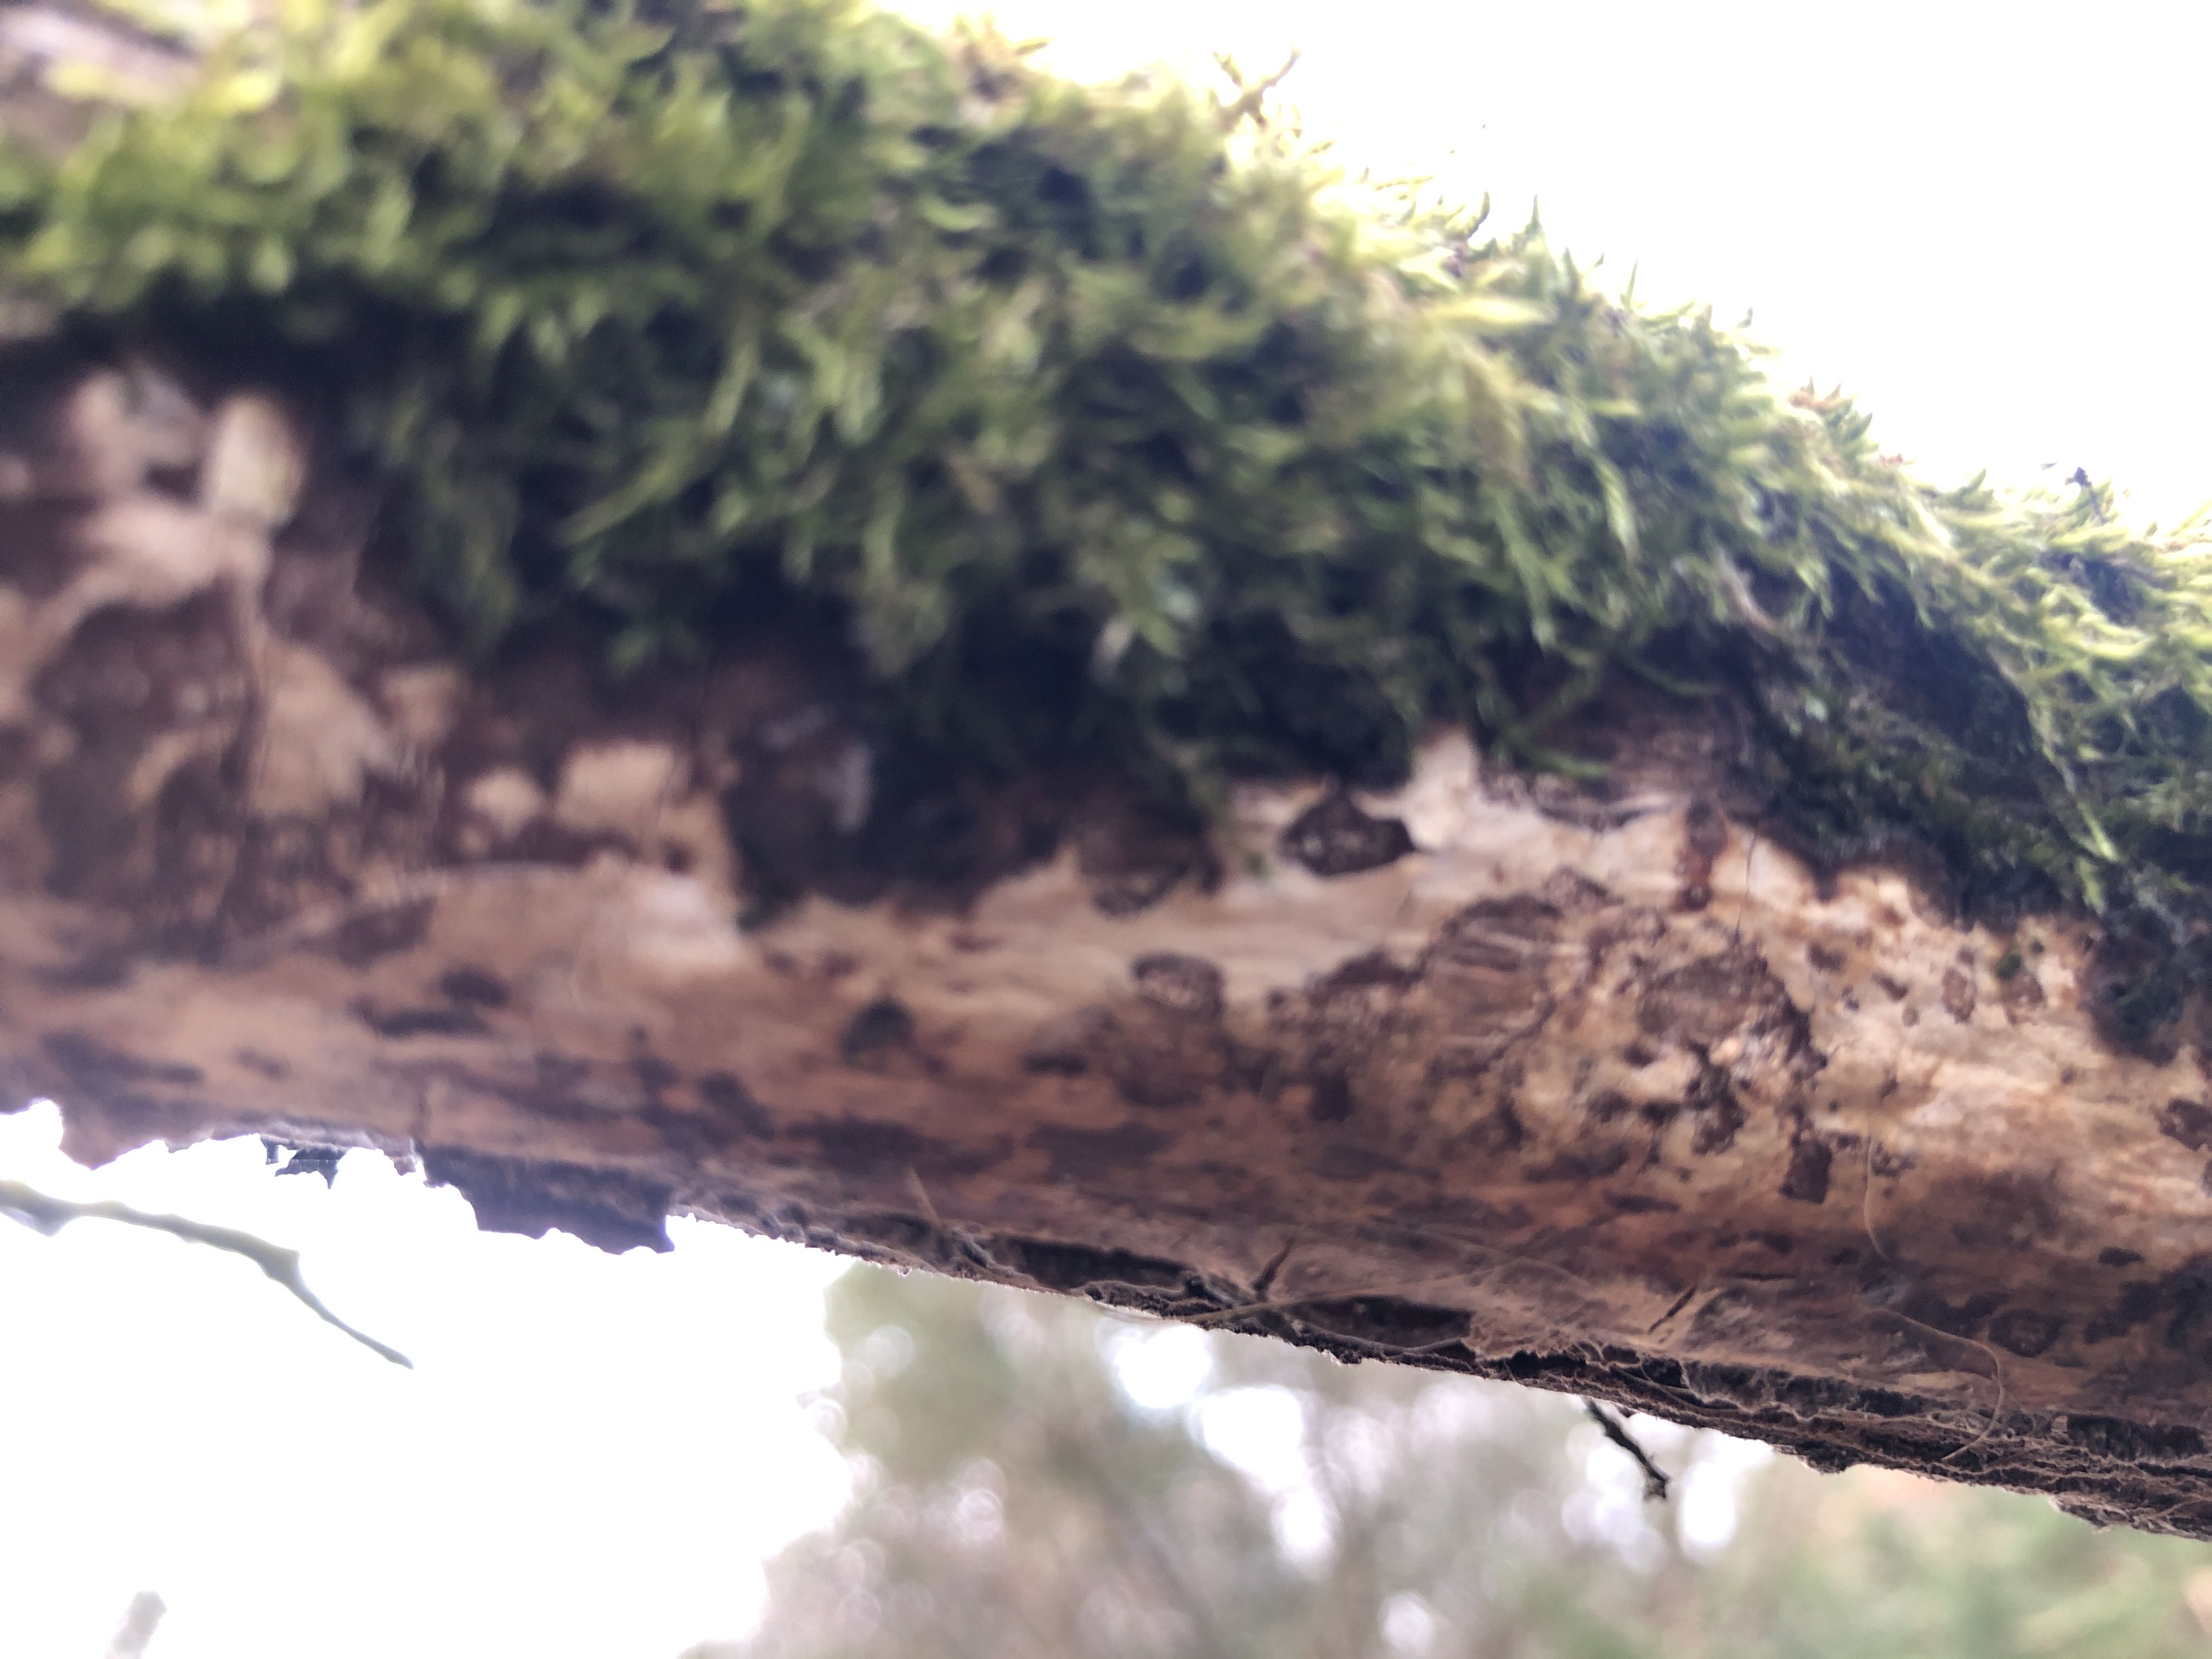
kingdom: Fungi
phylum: Basidiomycota
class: Agaricomycetes
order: Corticiales
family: Vuilleminiaceae
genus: Vuilleminia
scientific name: Vuilleminia comedens
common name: almindelig barksprænger
